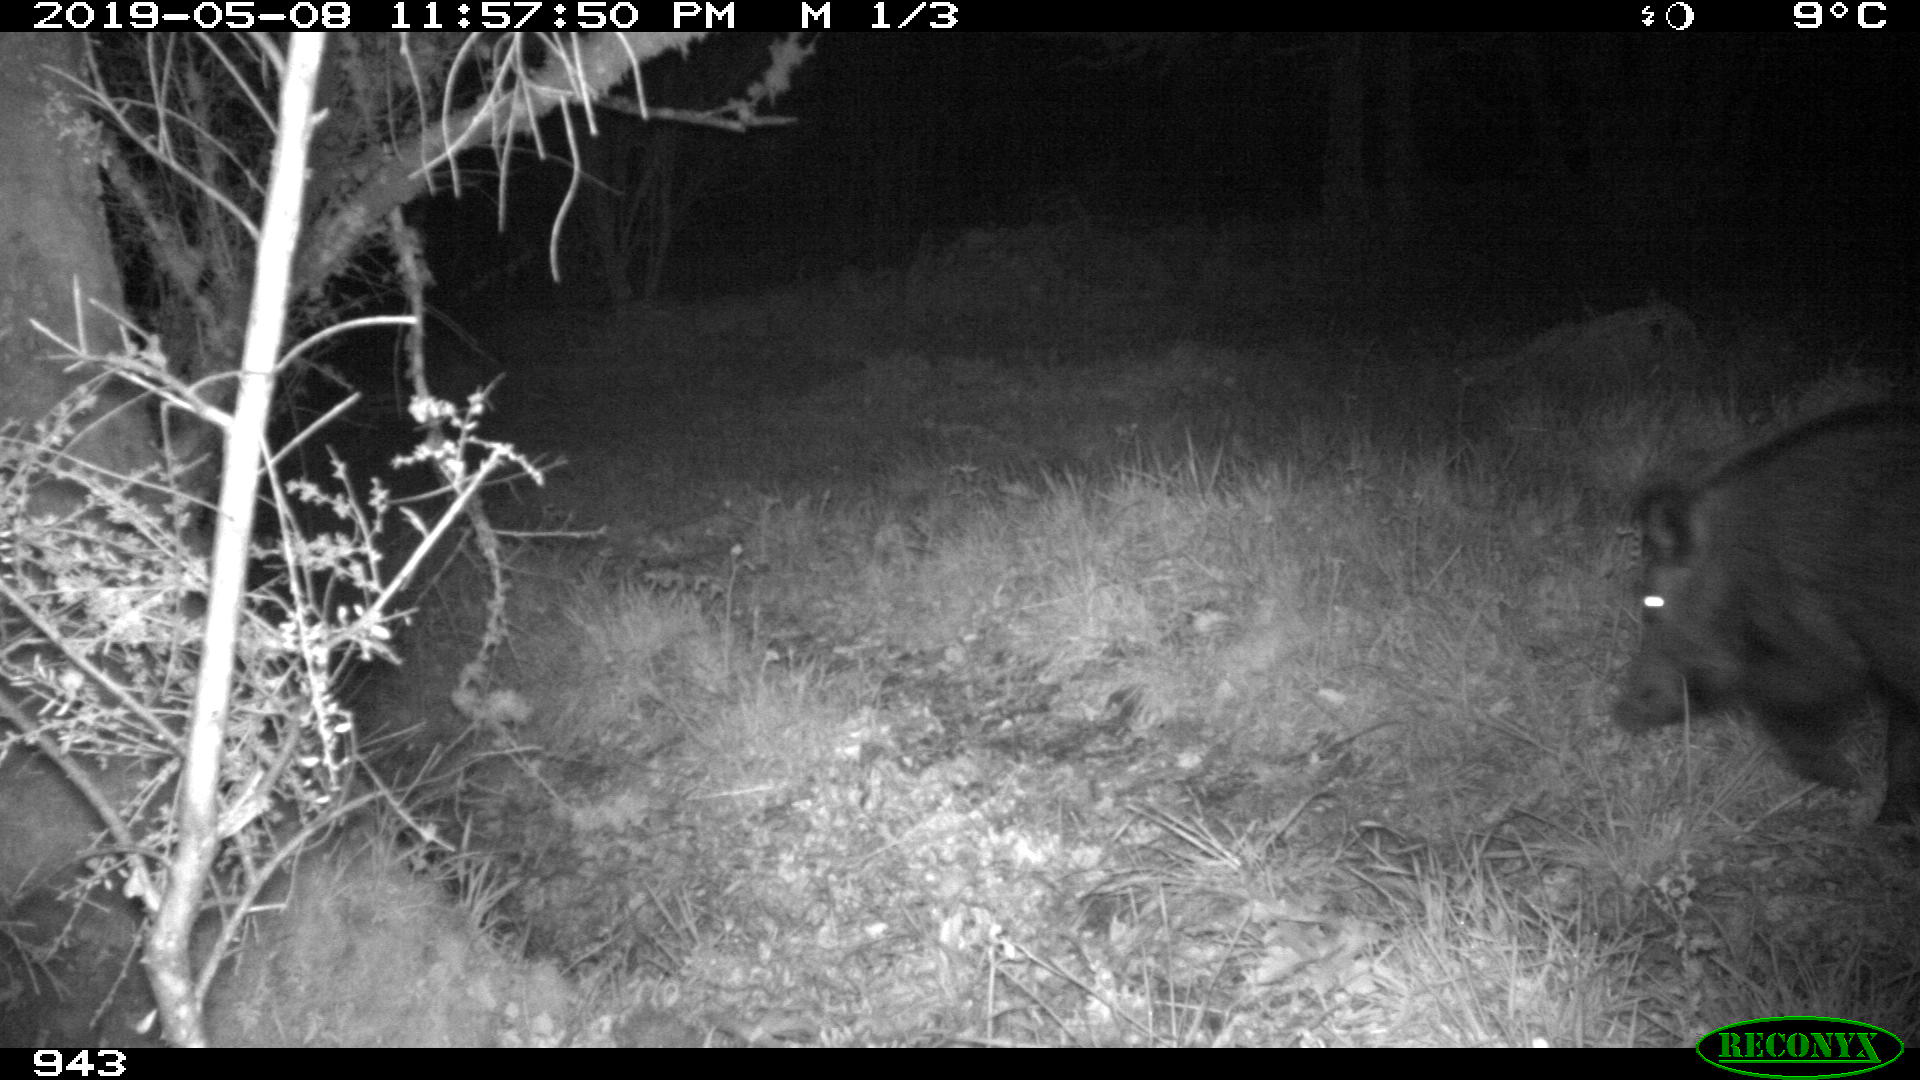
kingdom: Animalia
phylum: Chordata
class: Mammalia
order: Artiodactyla
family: Suidae
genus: Sus
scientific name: Sus scrofa
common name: Wild boar
